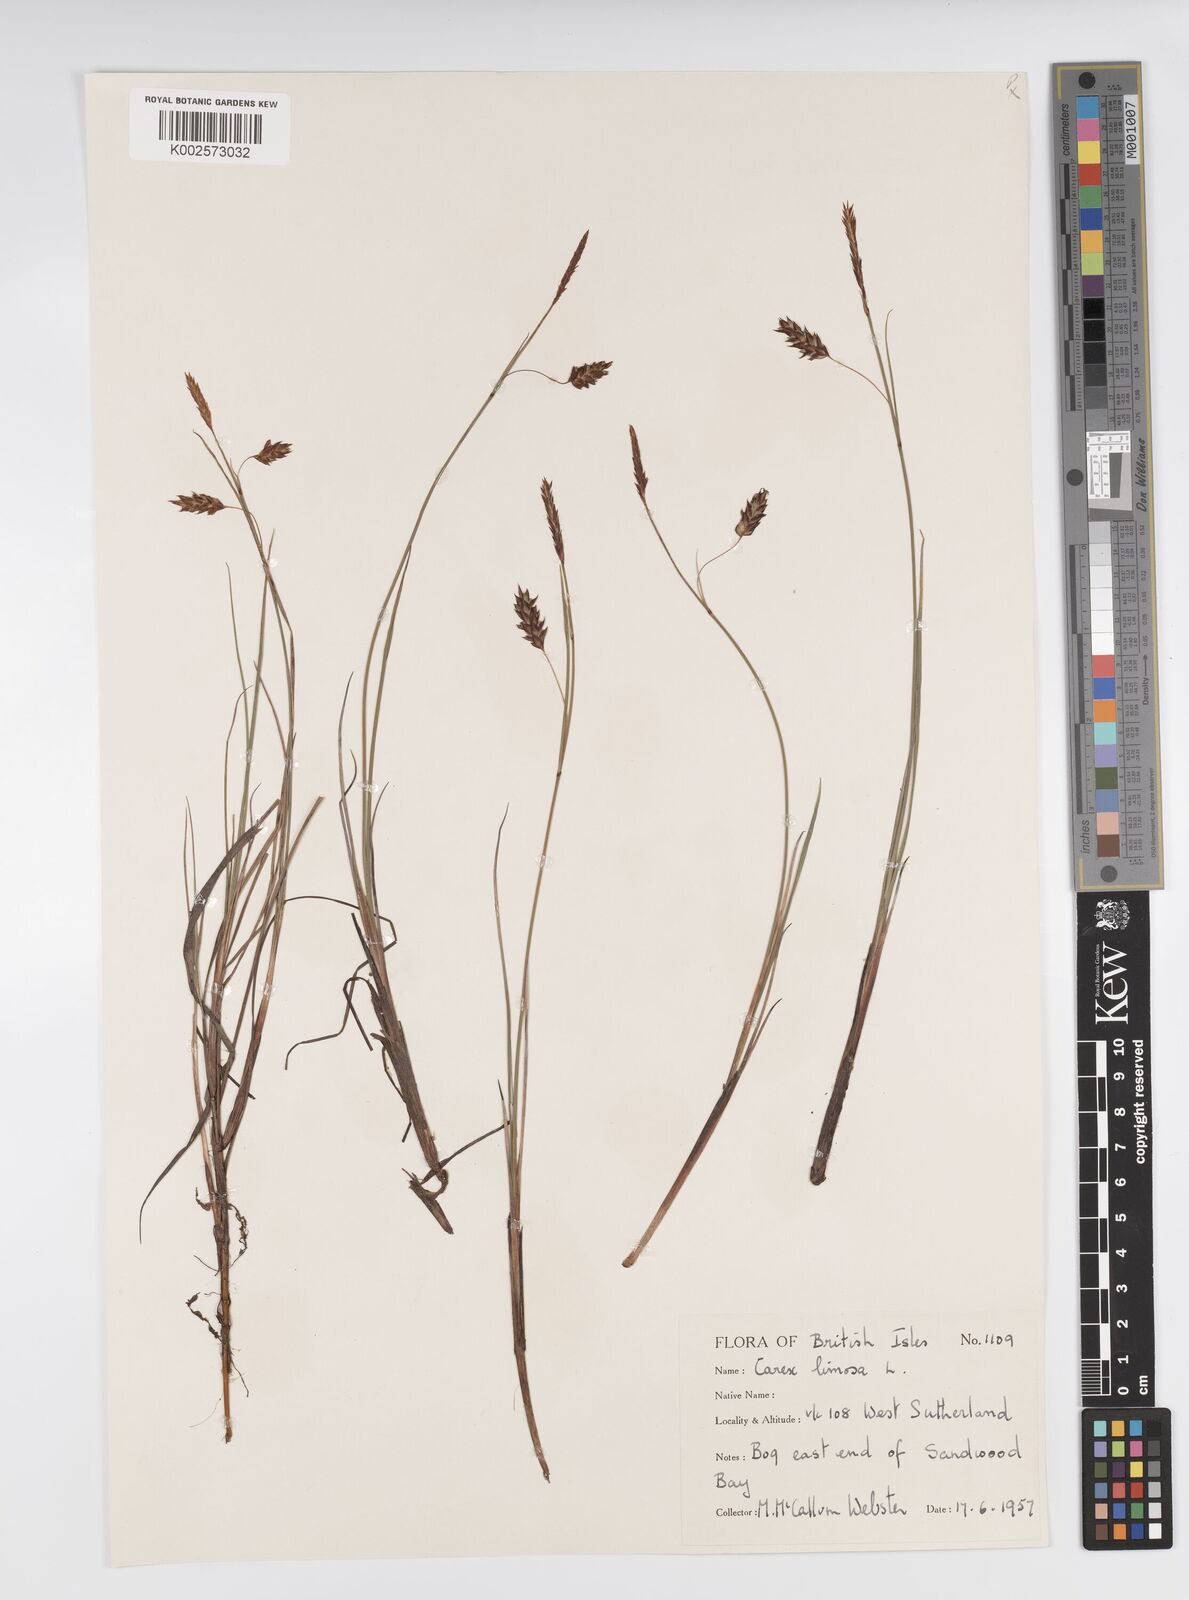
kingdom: Plantae
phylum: Tracheophyta
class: Liliopsida
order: Poales
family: Cyperaceae
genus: Carex
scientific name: Carex limosa
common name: Bog sedge
